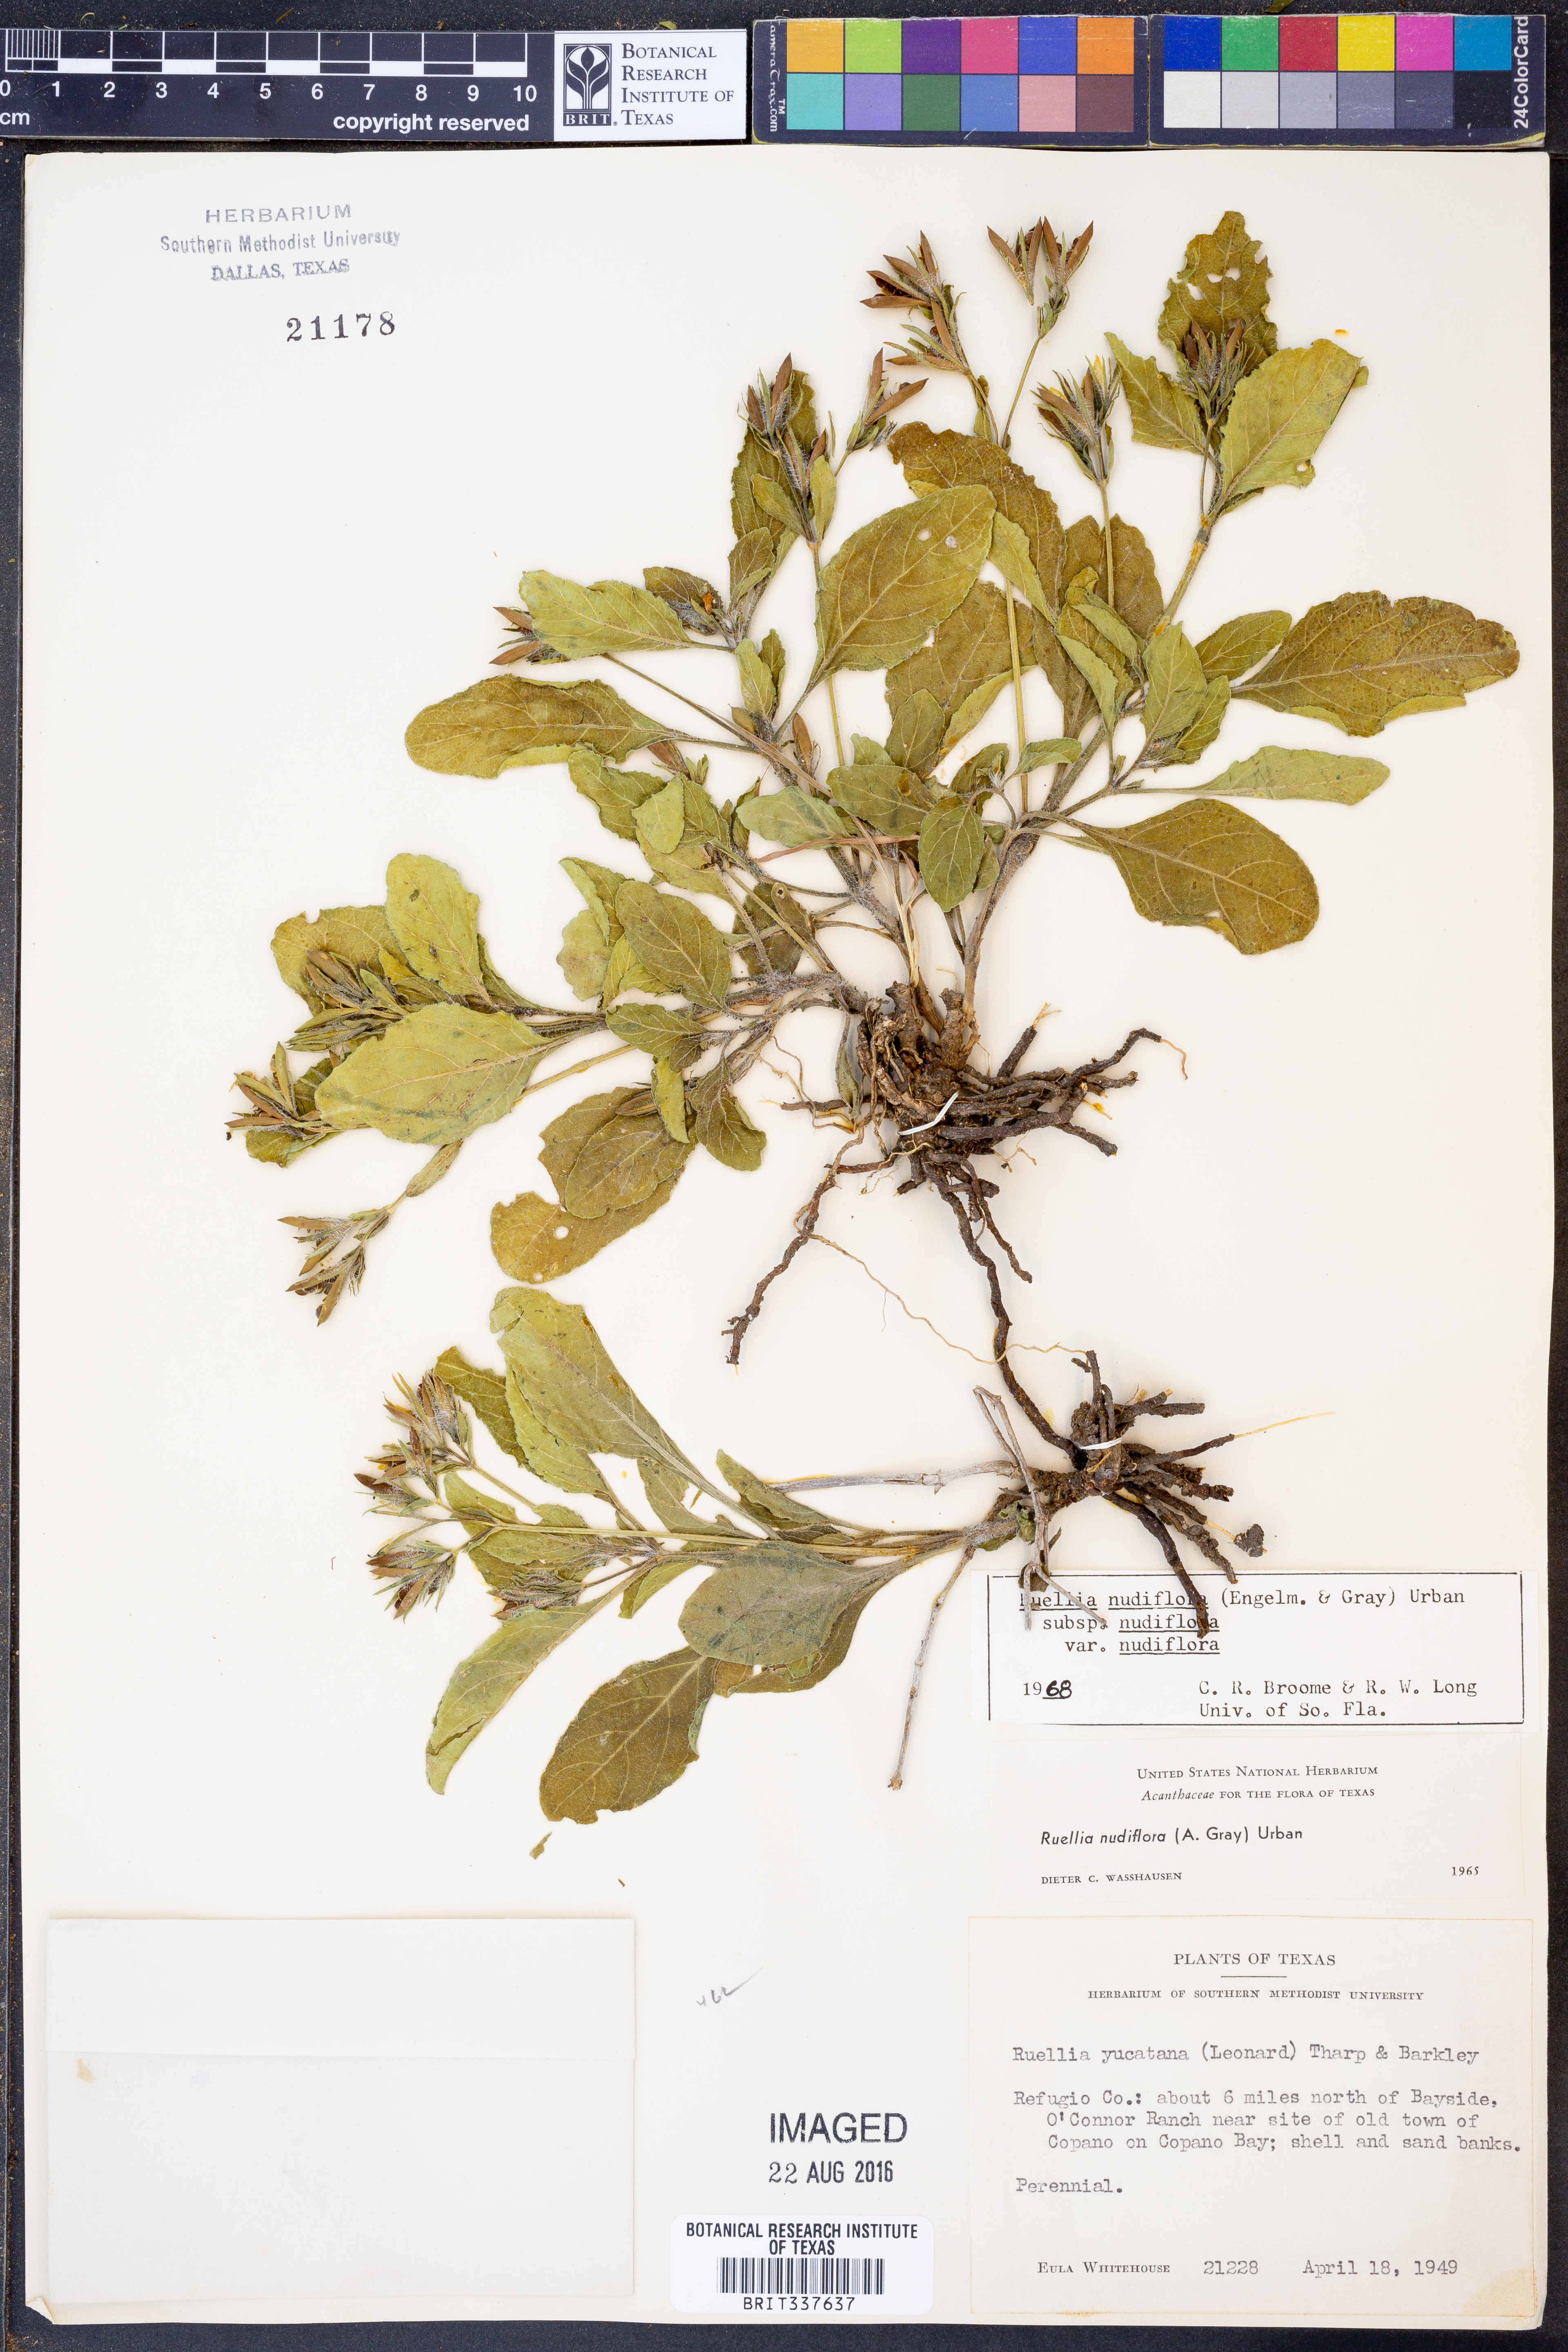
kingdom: Plantae
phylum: Tracheophyta
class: Magnoliopsida
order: Lamiales
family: Acanthaceae
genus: Ruellia
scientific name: Ruellia ciliatiflora
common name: Hairyflower wild petunia
